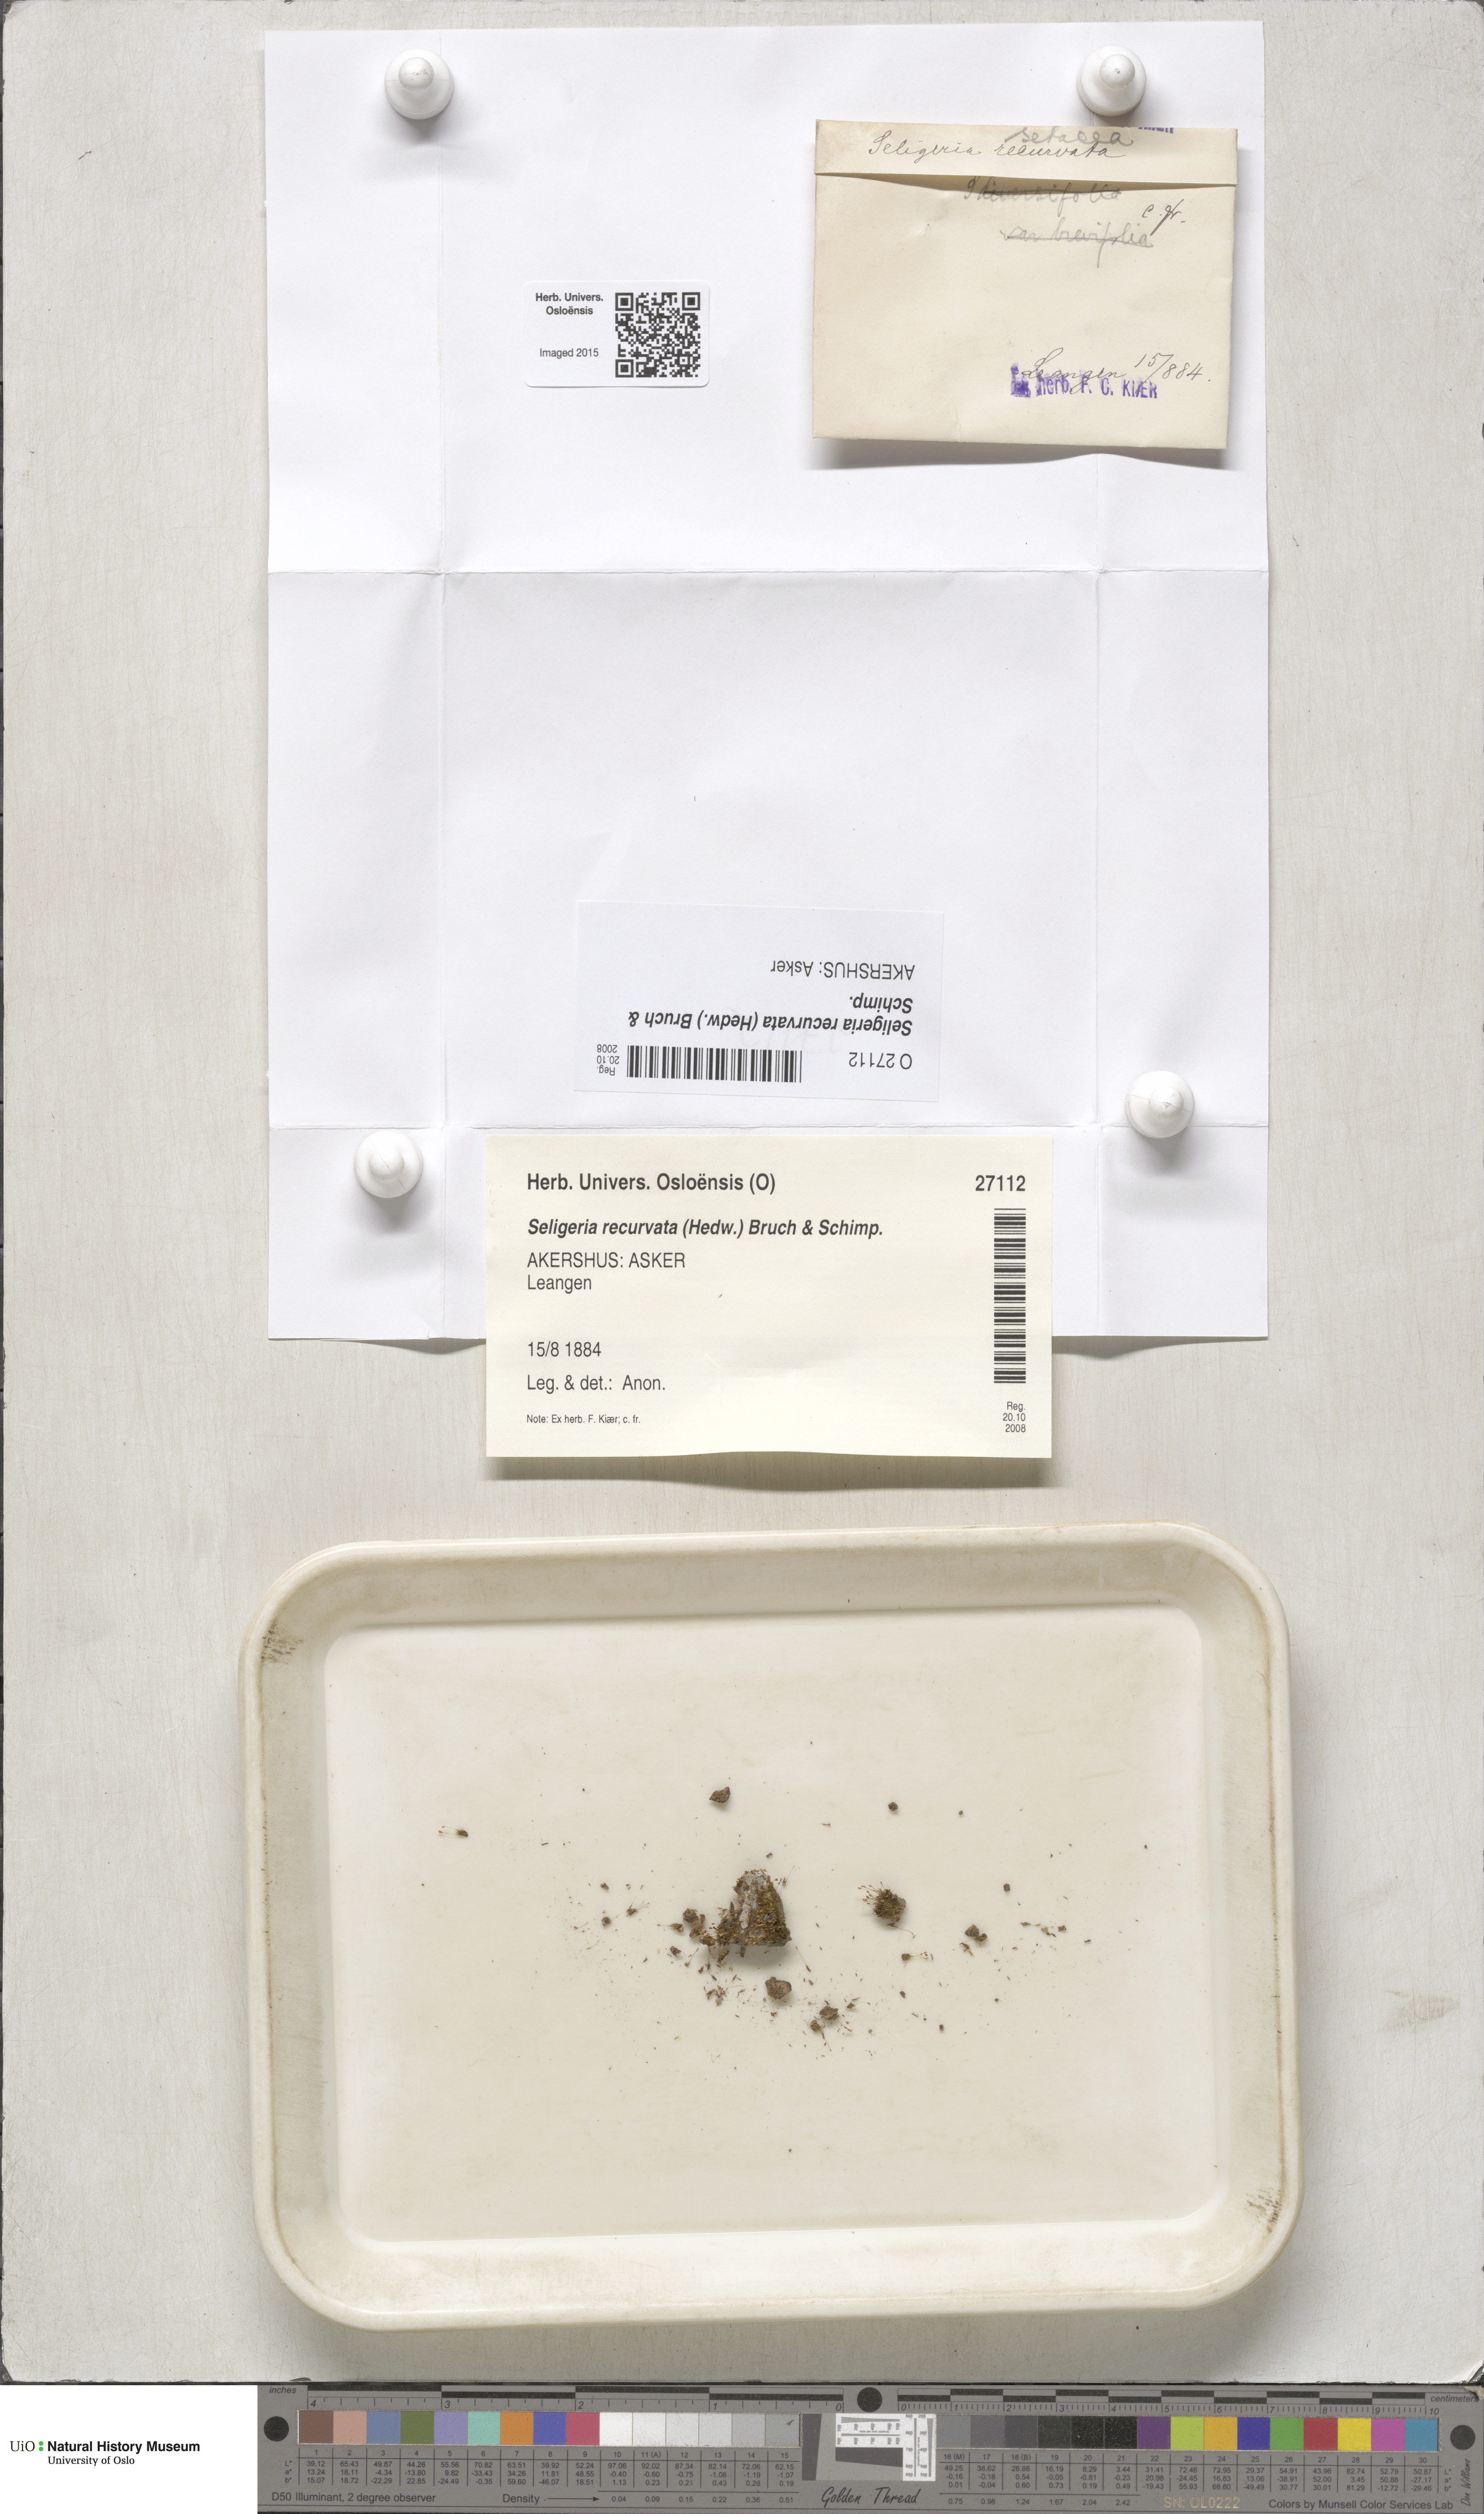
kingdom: Plantae
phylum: Bryophyta
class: Bryopsida
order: Grimmiales
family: Seligeriaceae
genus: Blindiadelphus
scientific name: Blindiadelphus recurvatus
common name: Recurved rock-bristle
